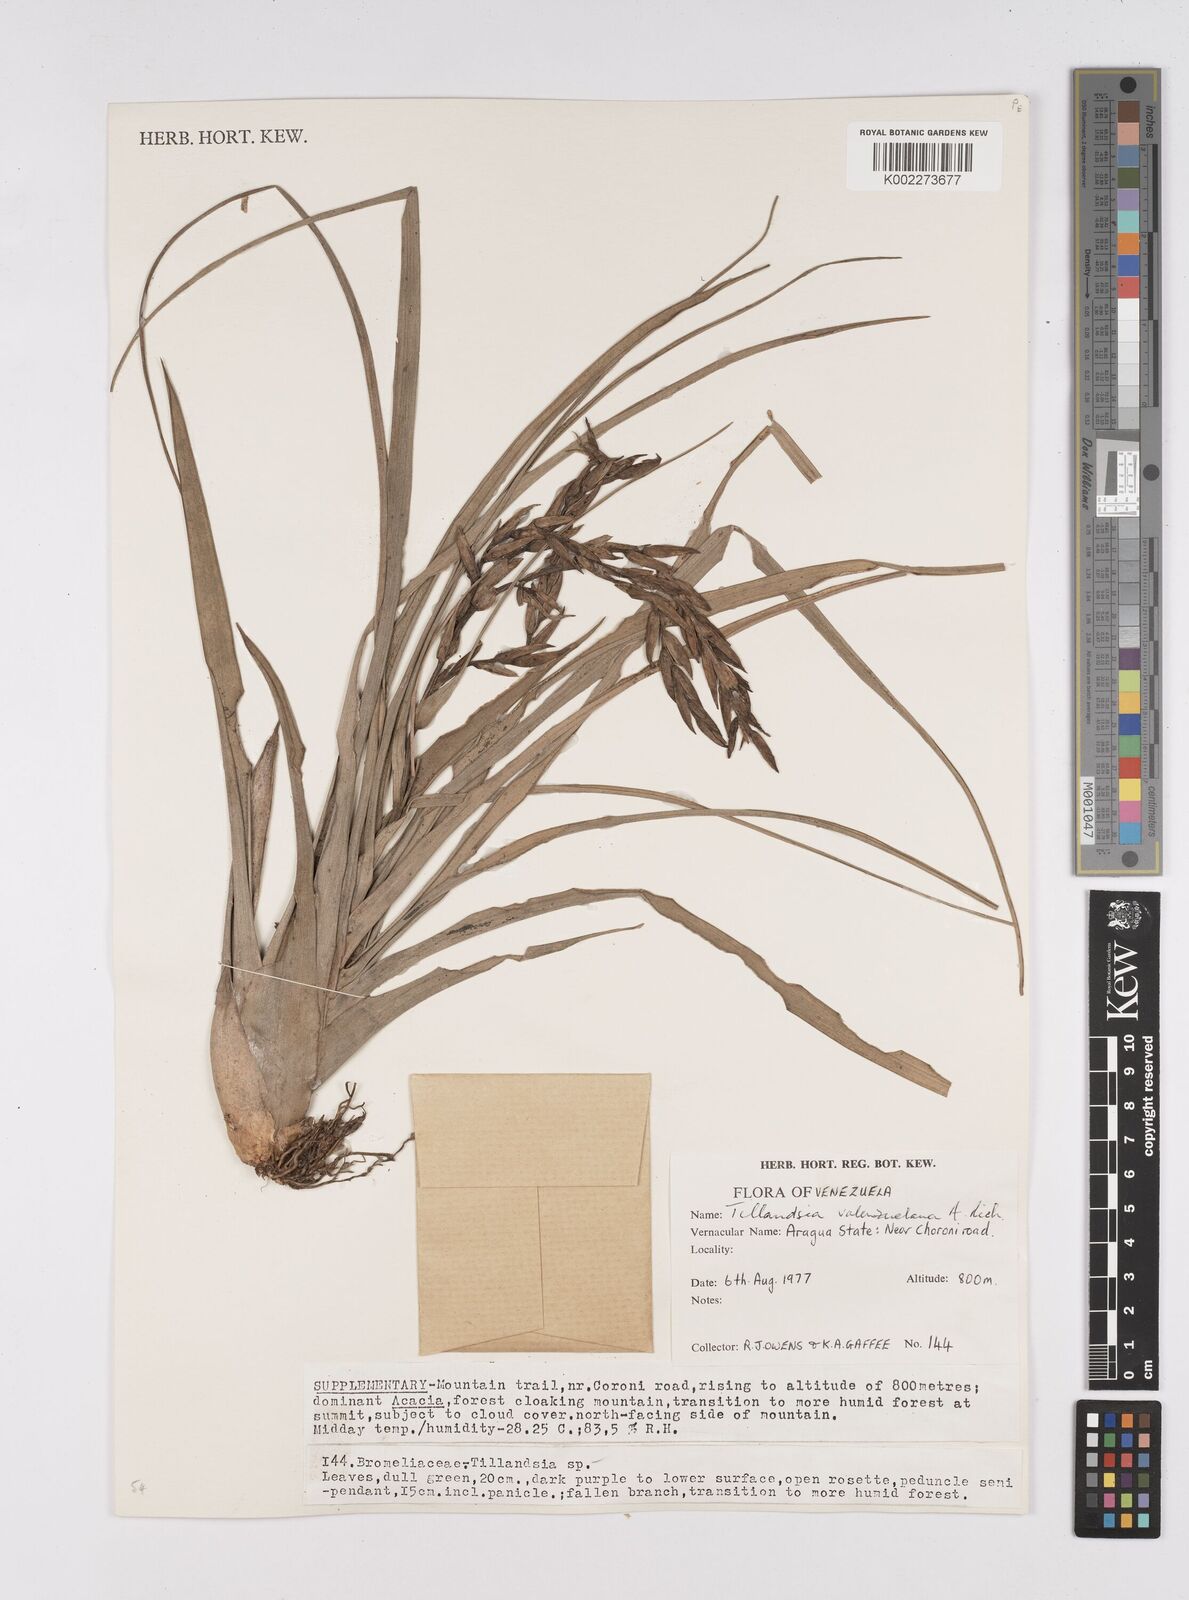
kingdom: Plantae
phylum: Tracheophyta
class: Liliopsida
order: Poales
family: Bromeliaceae
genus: Tillandsia
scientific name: Tillandsia variabilis
